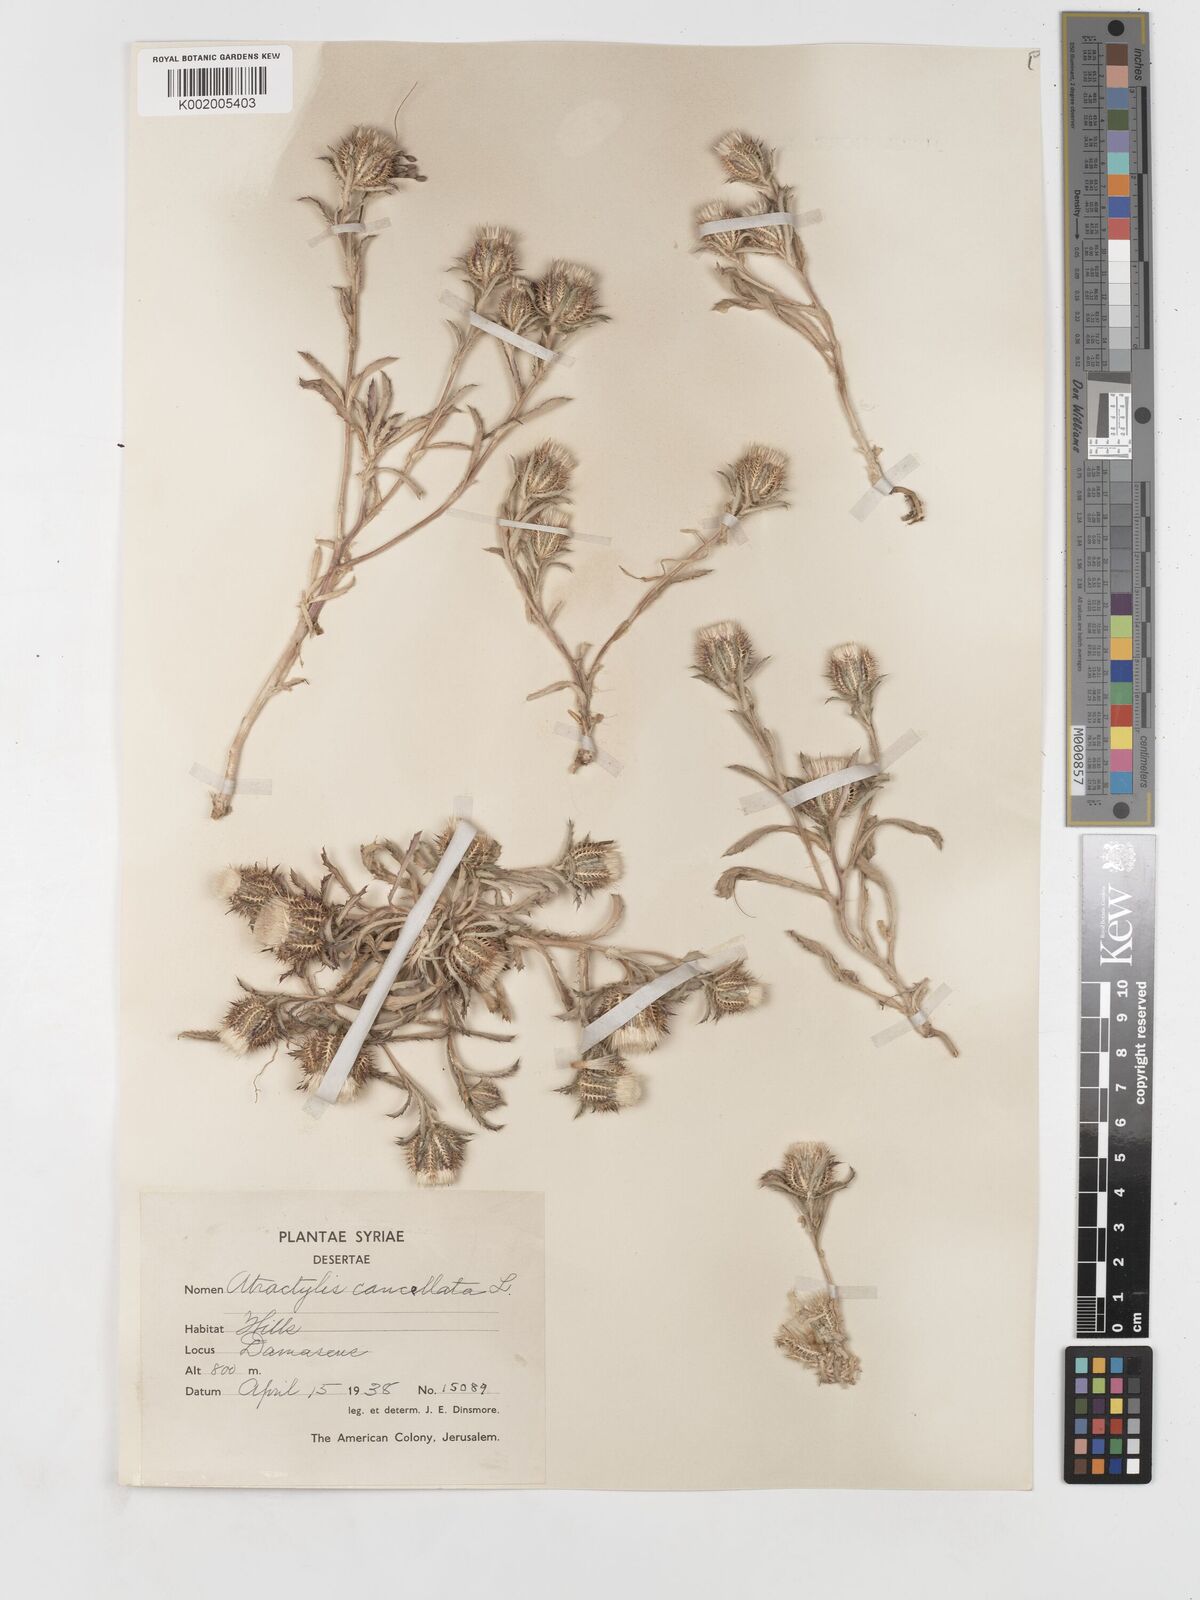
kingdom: Plantae
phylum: Tracheophyta
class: Magnoliopsida
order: Asterales
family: Asteraceae
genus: Atractylis
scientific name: Atractylis cancellata
